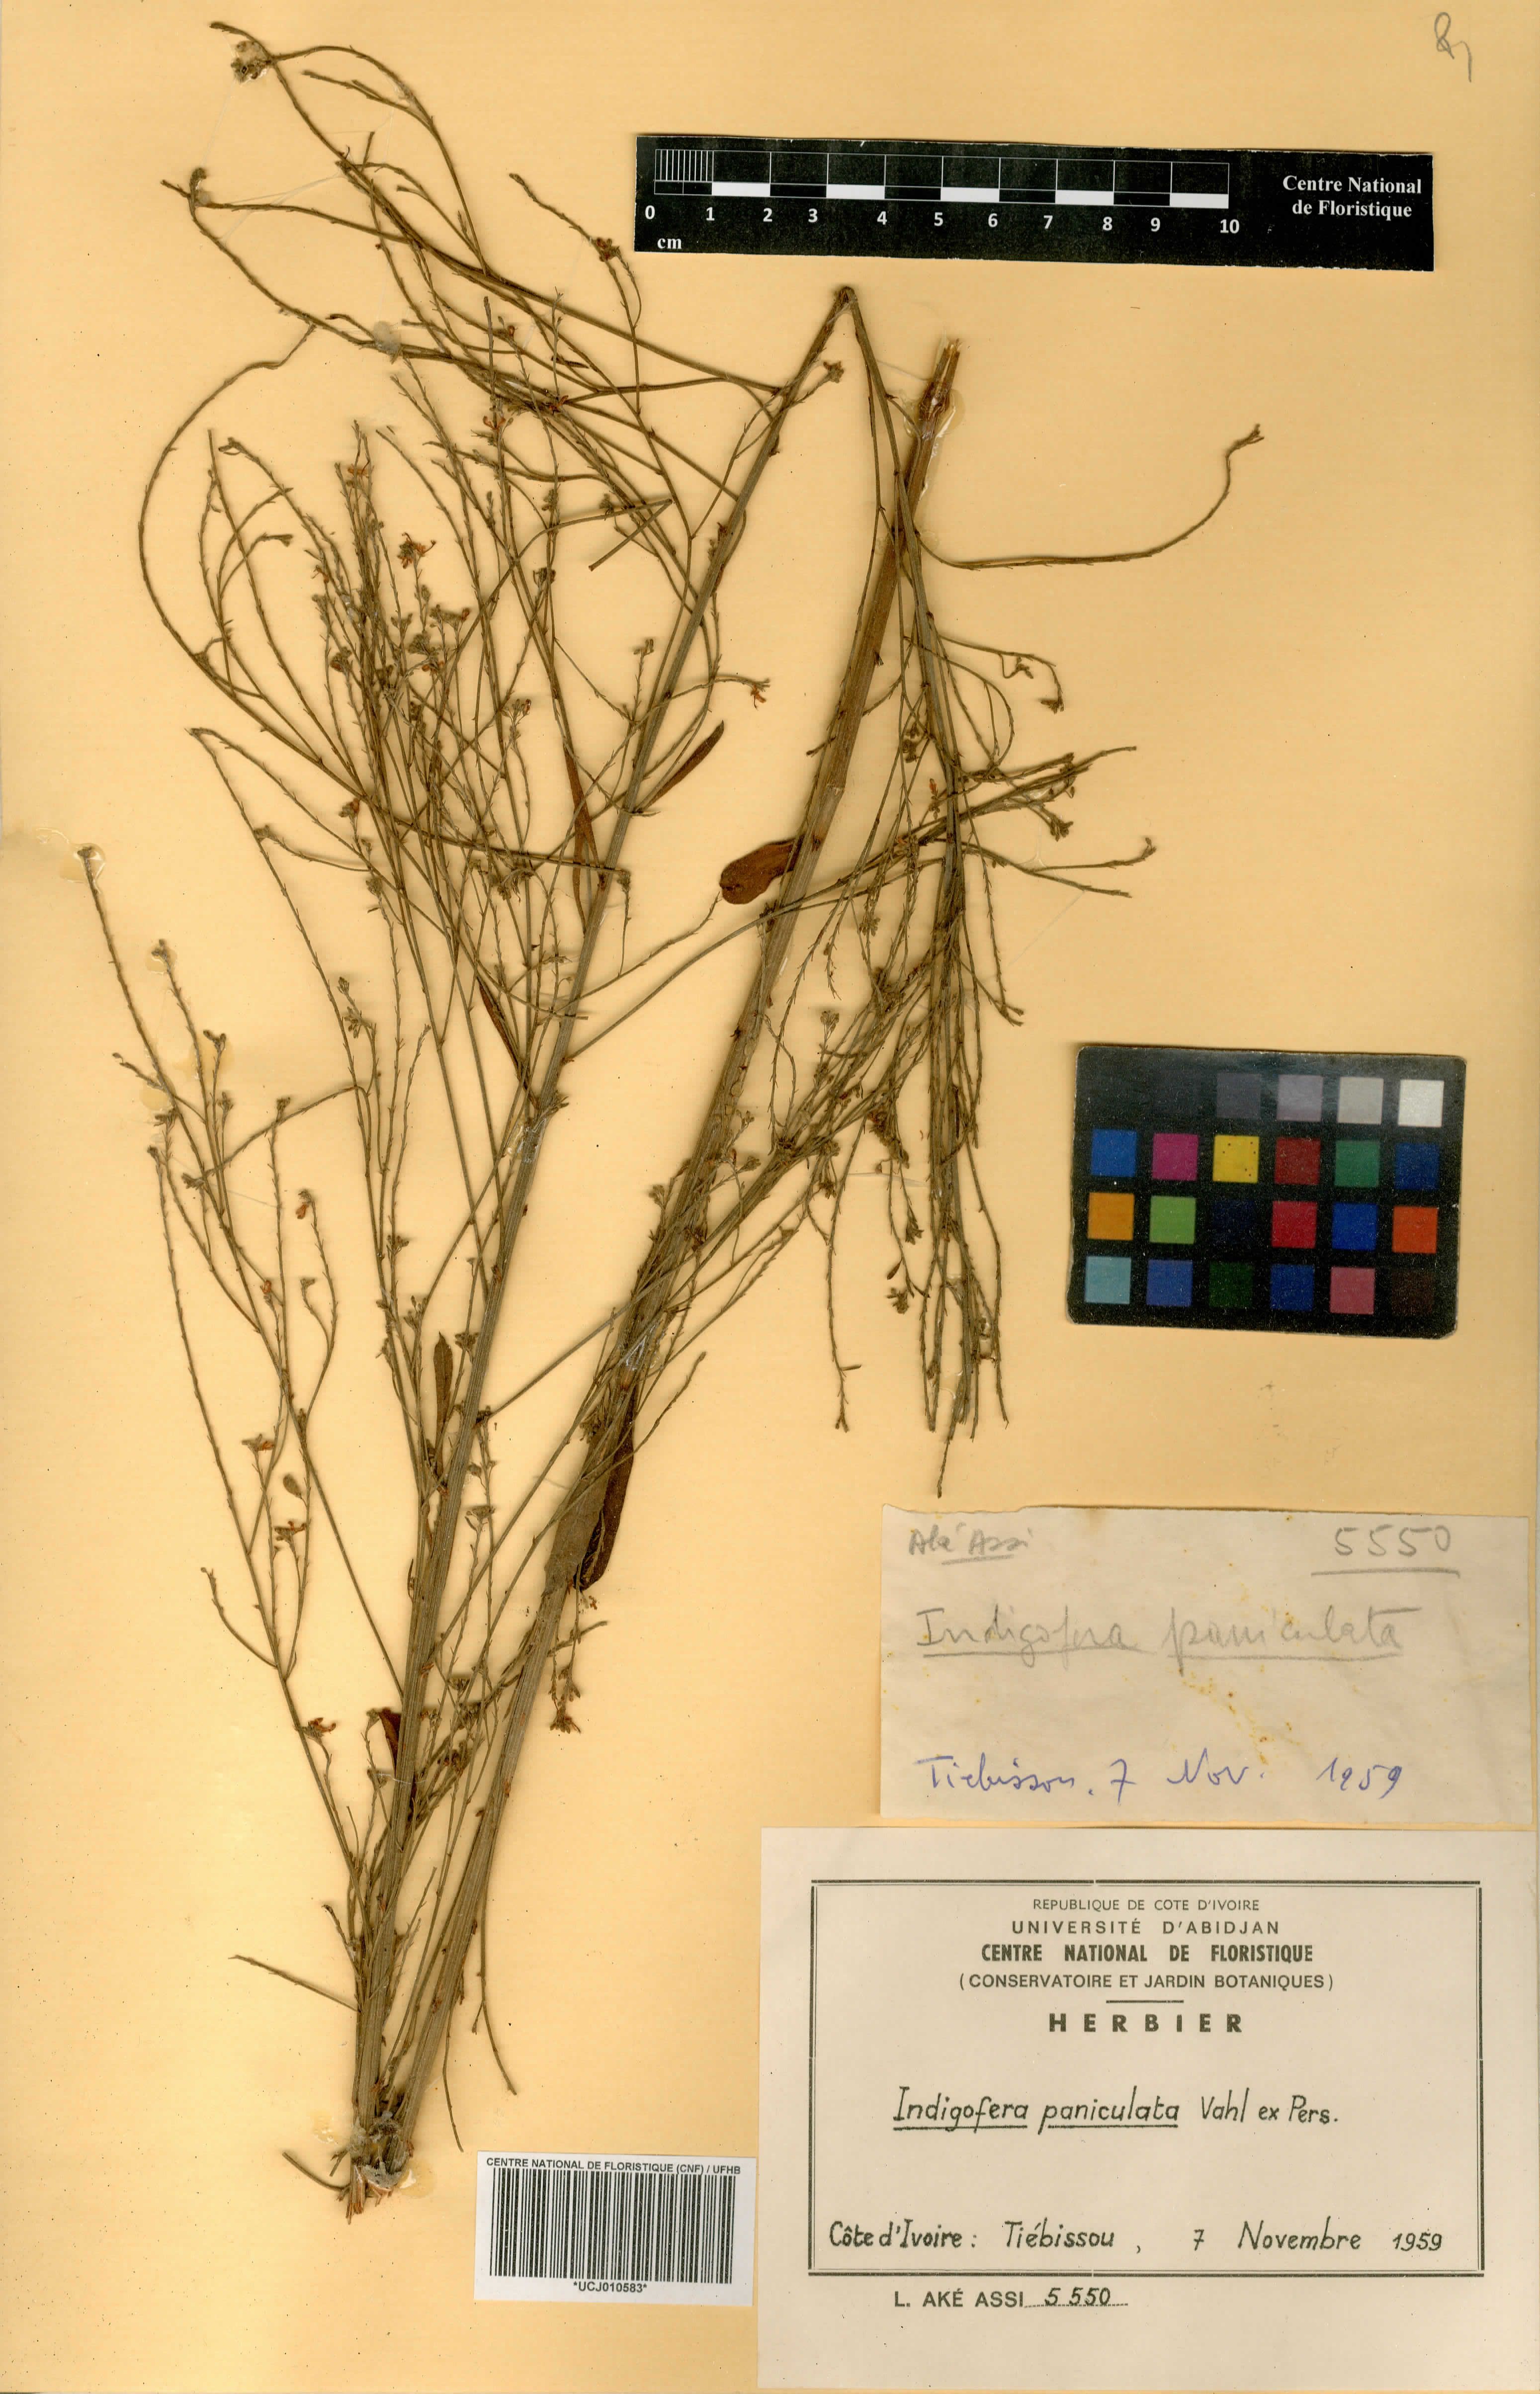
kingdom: Plantae
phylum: Tracheophyta
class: Magnoliopsida
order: Fabales
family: Fabaceae
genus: Indigofera
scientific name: Indigofera paniculata
